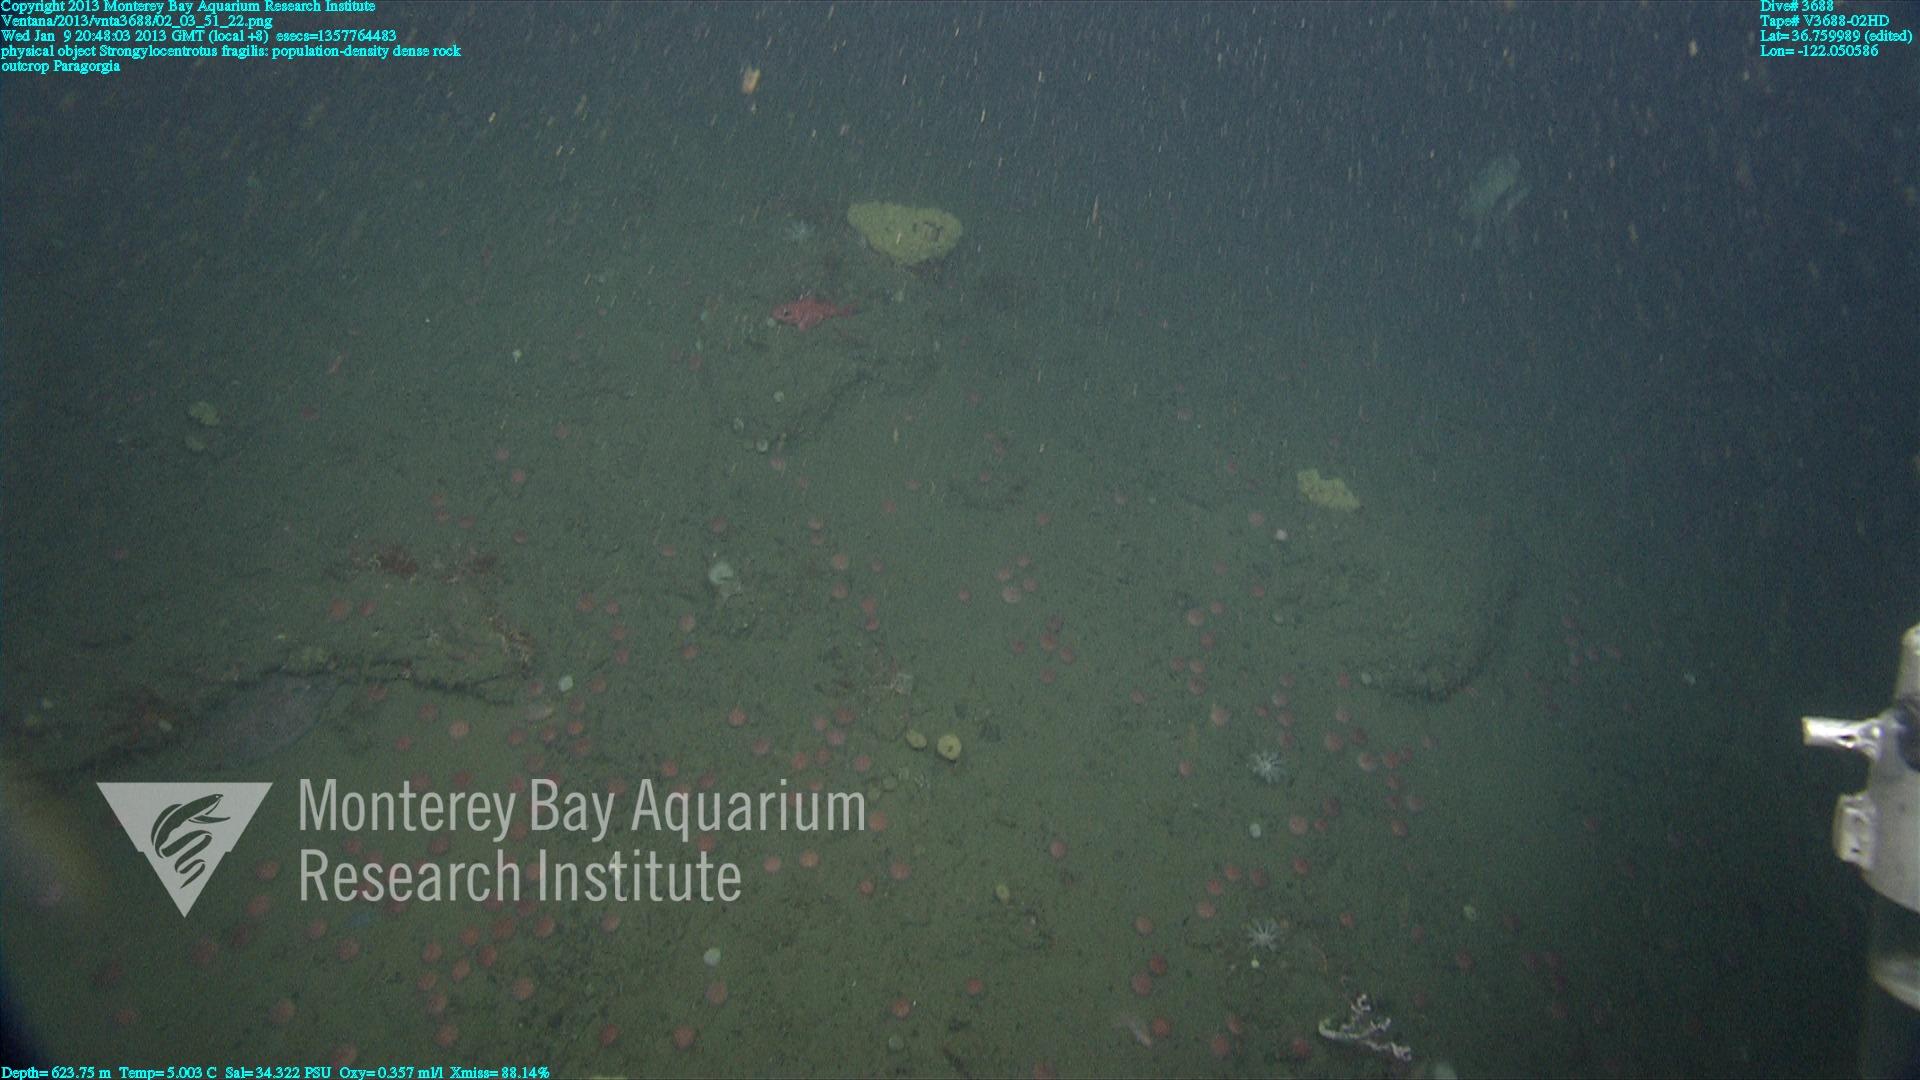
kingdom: Animalia
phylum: Cnidaria
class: Anthozoa
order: Scleralcyonacea
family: Coralliidae
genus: Paragorgia
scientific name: Paragorgia
